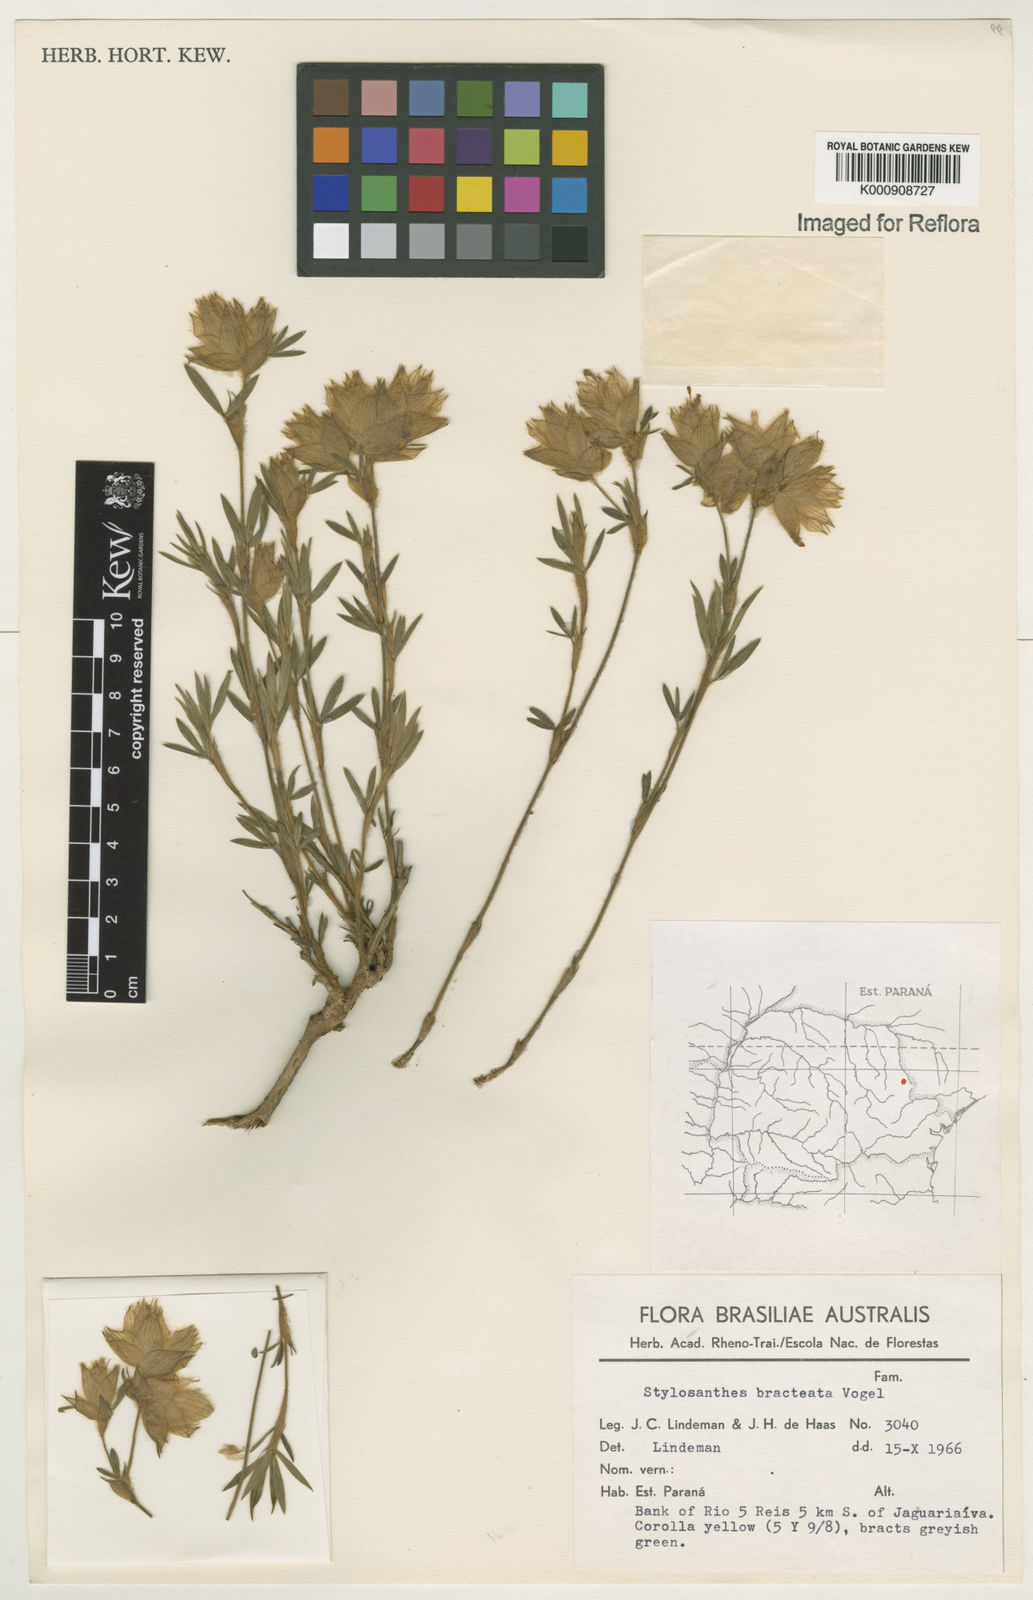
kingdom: Plantae
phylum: Tracheophyta
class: Magnoliopsida
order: Fabales
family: Fabaceae
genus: Stylosanthes
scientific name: Stylosanthes bracteata
